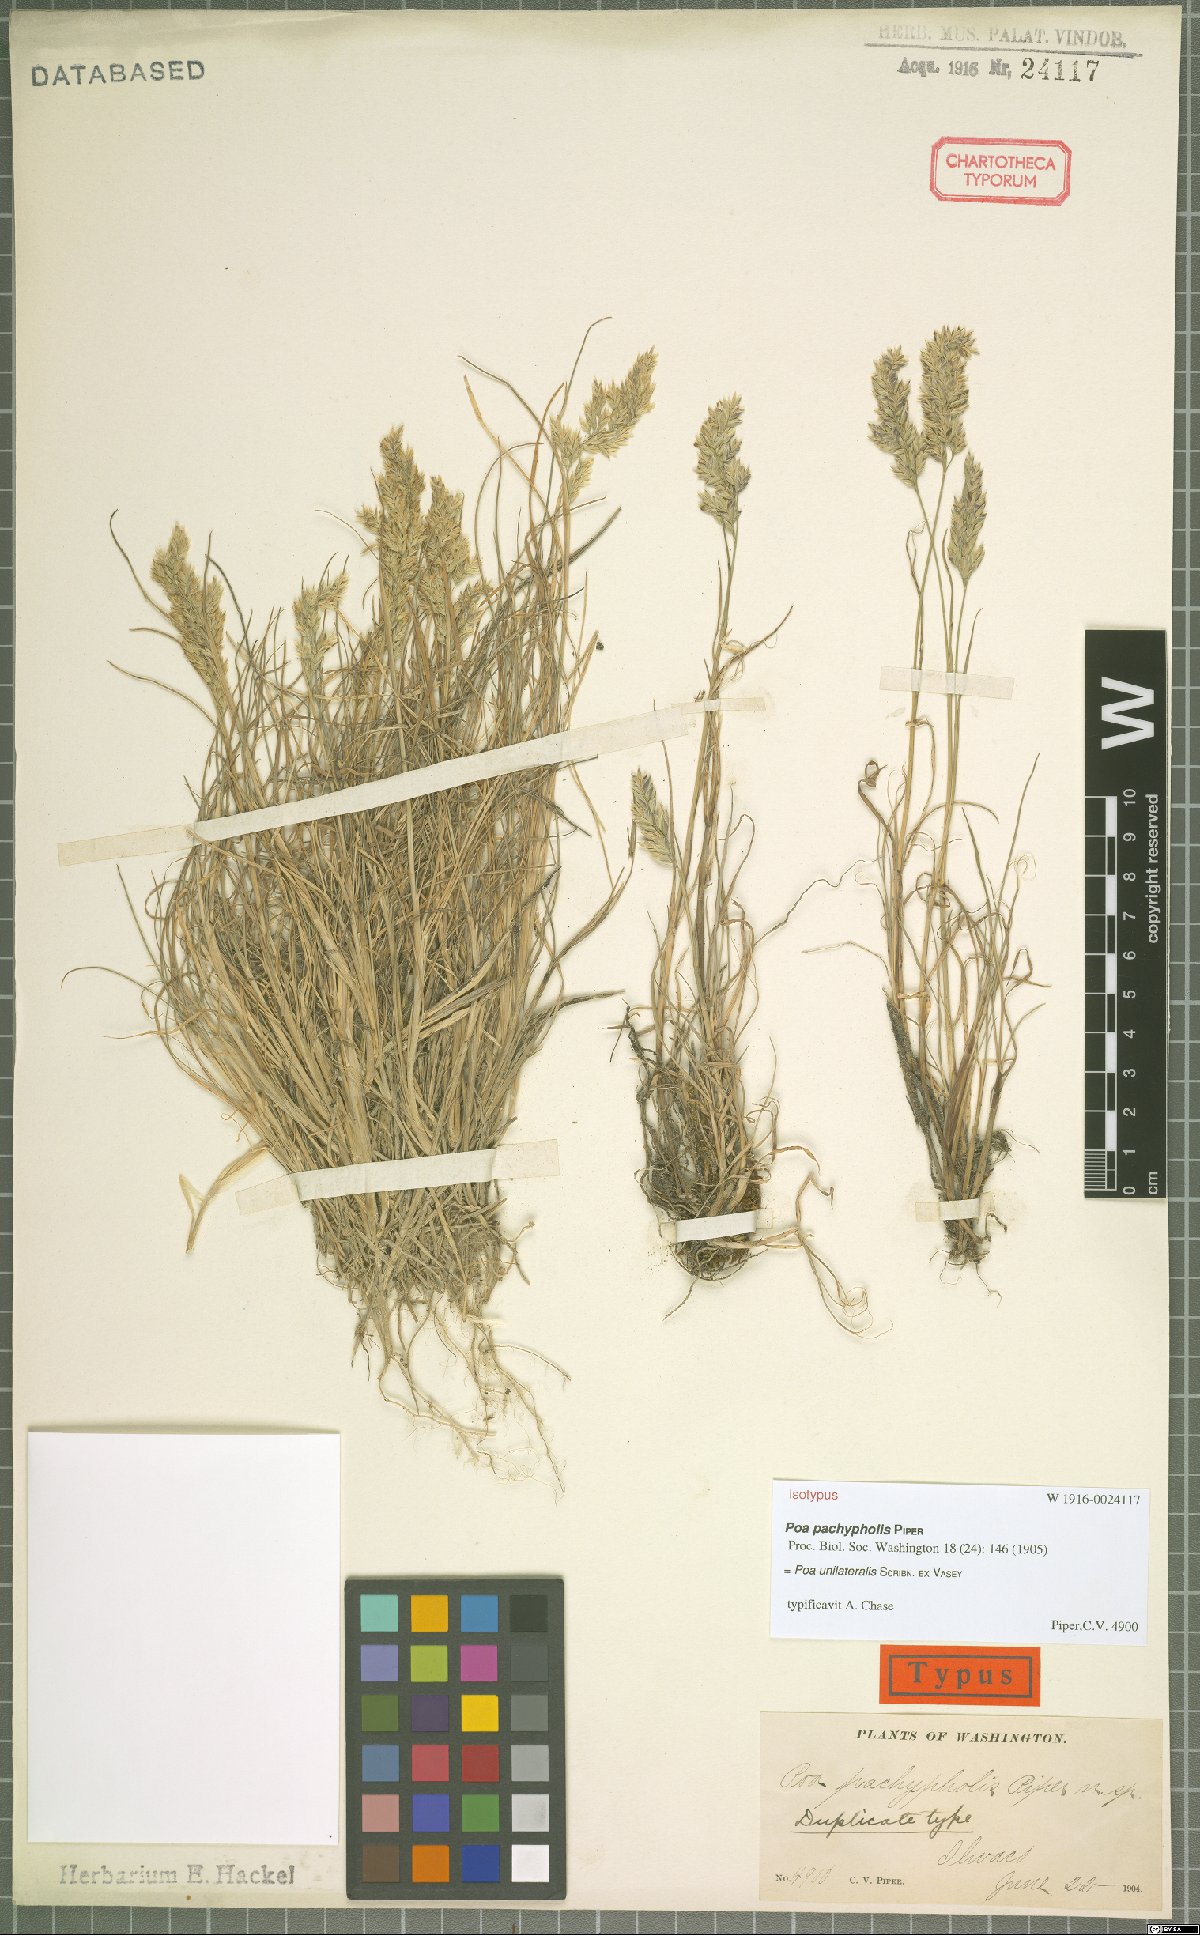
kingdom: Plantae
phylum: Tracheophyta
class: Liliopsida
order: Poales
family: Poaceae
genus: Poa
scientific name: Poa unilateralis
